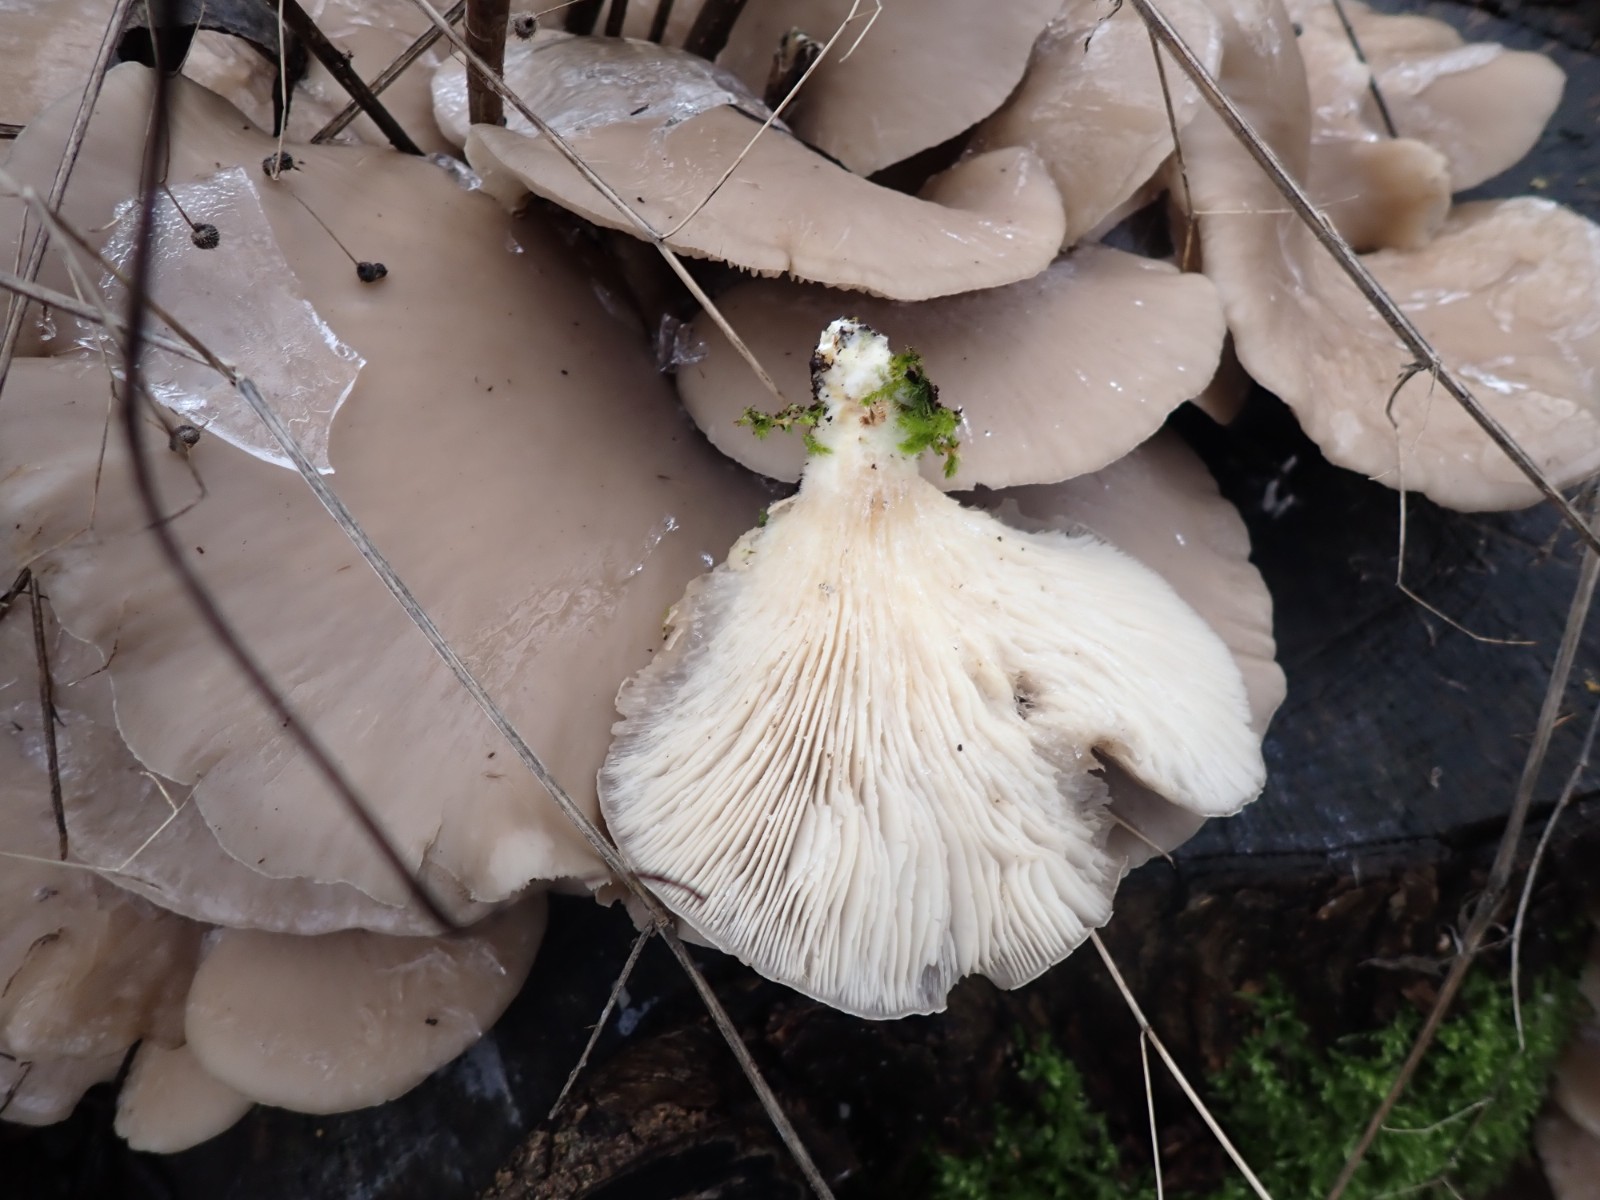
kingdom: Fungi
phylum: Basidiomycota
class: Agaricomycetes
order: Agaricales
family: Pleurotaceae
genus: Pleurotus
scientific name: Pleurotus ostreatus
